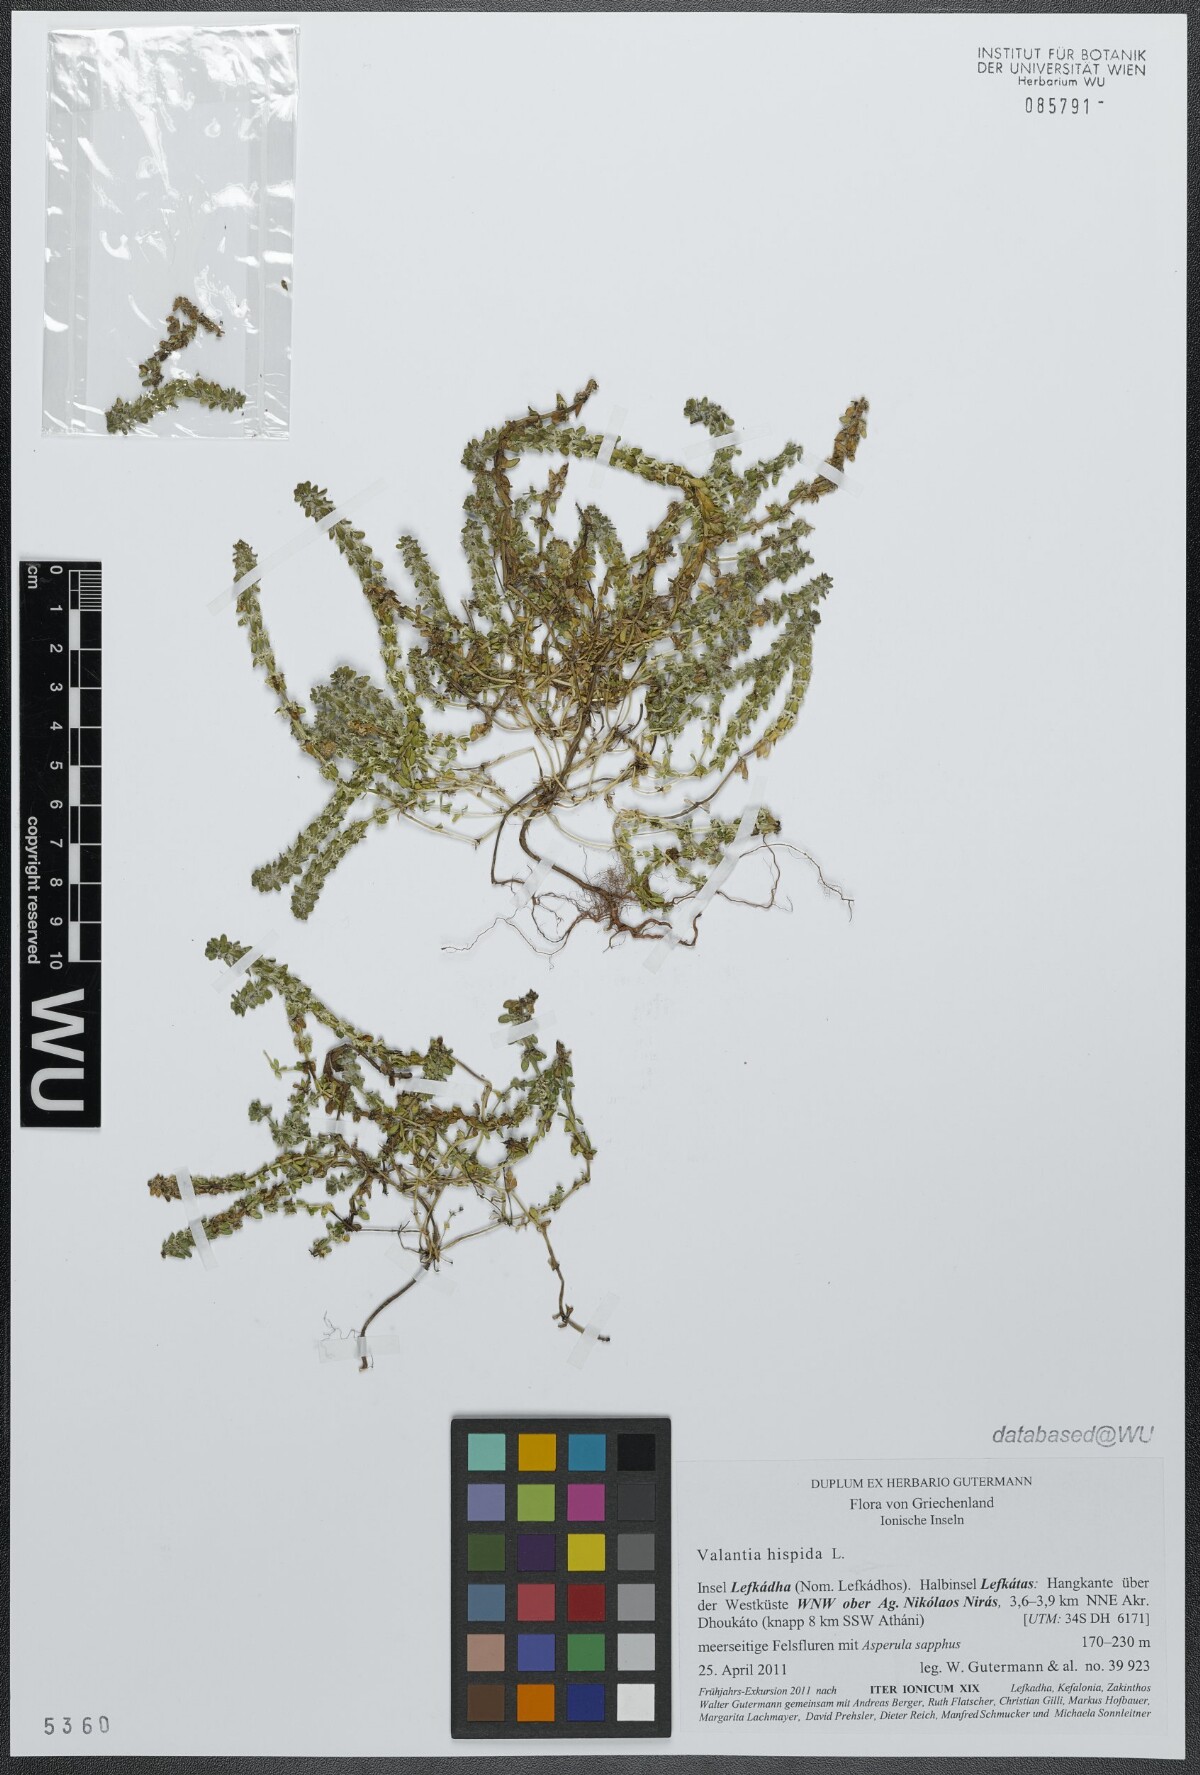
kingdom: Plantae
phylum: Tracheophyta
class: Magnoliopsida
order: Gentianales
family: Rubiaceae
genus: Valantia
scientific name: Valantia hispida
